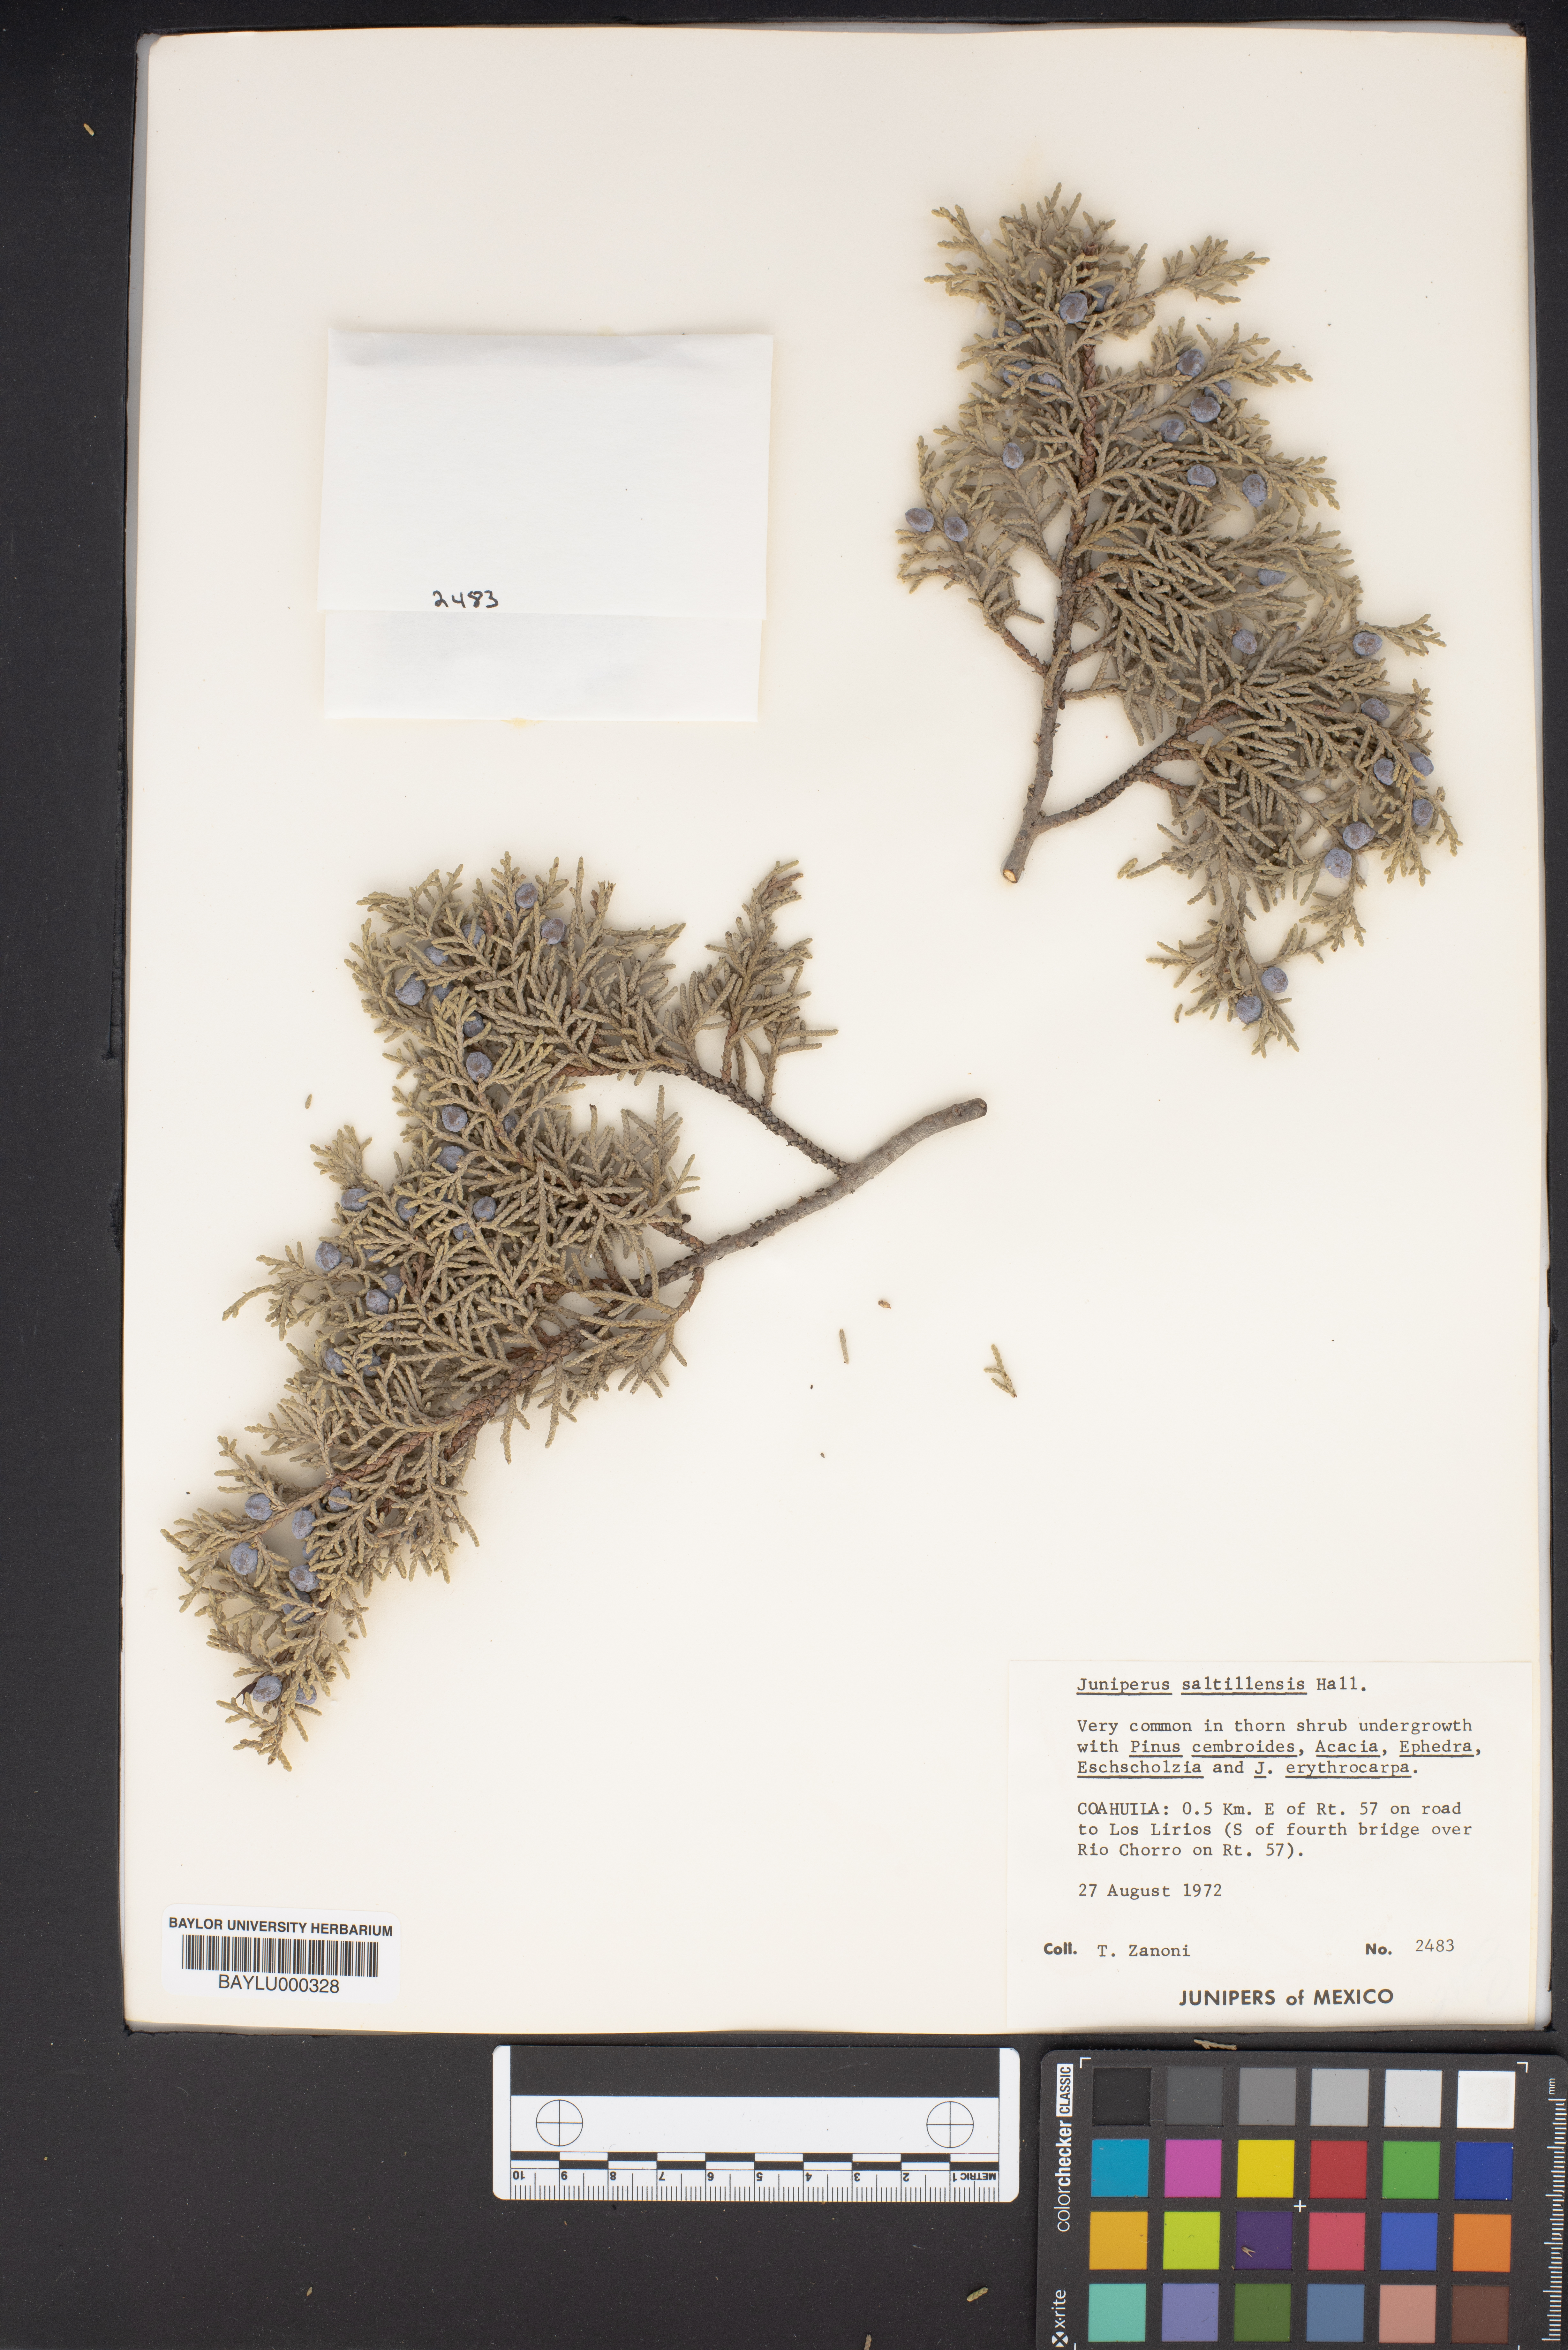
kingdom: Plantae
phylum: Tracheophyta
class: Pinopsida
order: Pinales
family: Cupressaceae
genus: Juniperus
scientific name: Juniperus saltillensis
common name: Saltillo juniper
